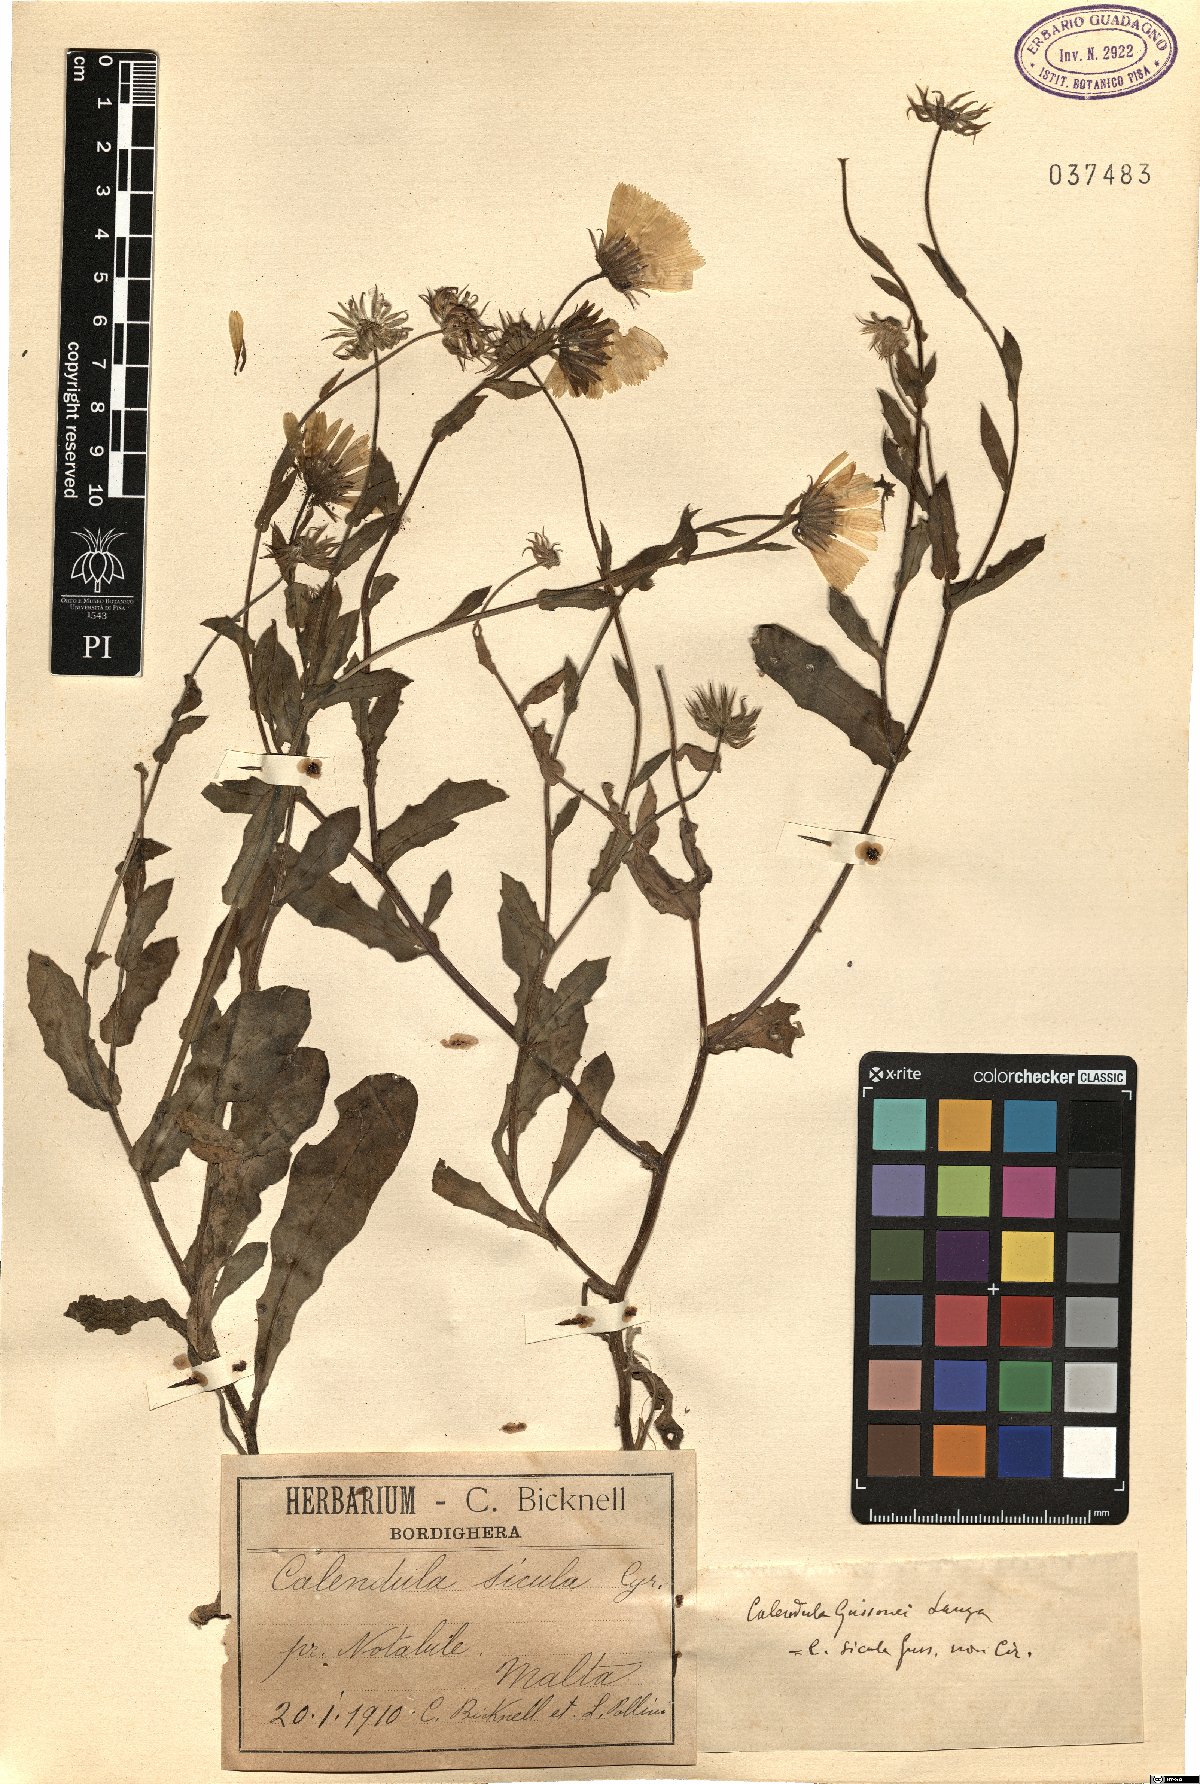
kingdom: Plantae
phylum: Tracheophyta
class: Magnoliopsida
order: Asterales
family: Asteraceae
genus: Calendula
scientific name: Calendula stellata
